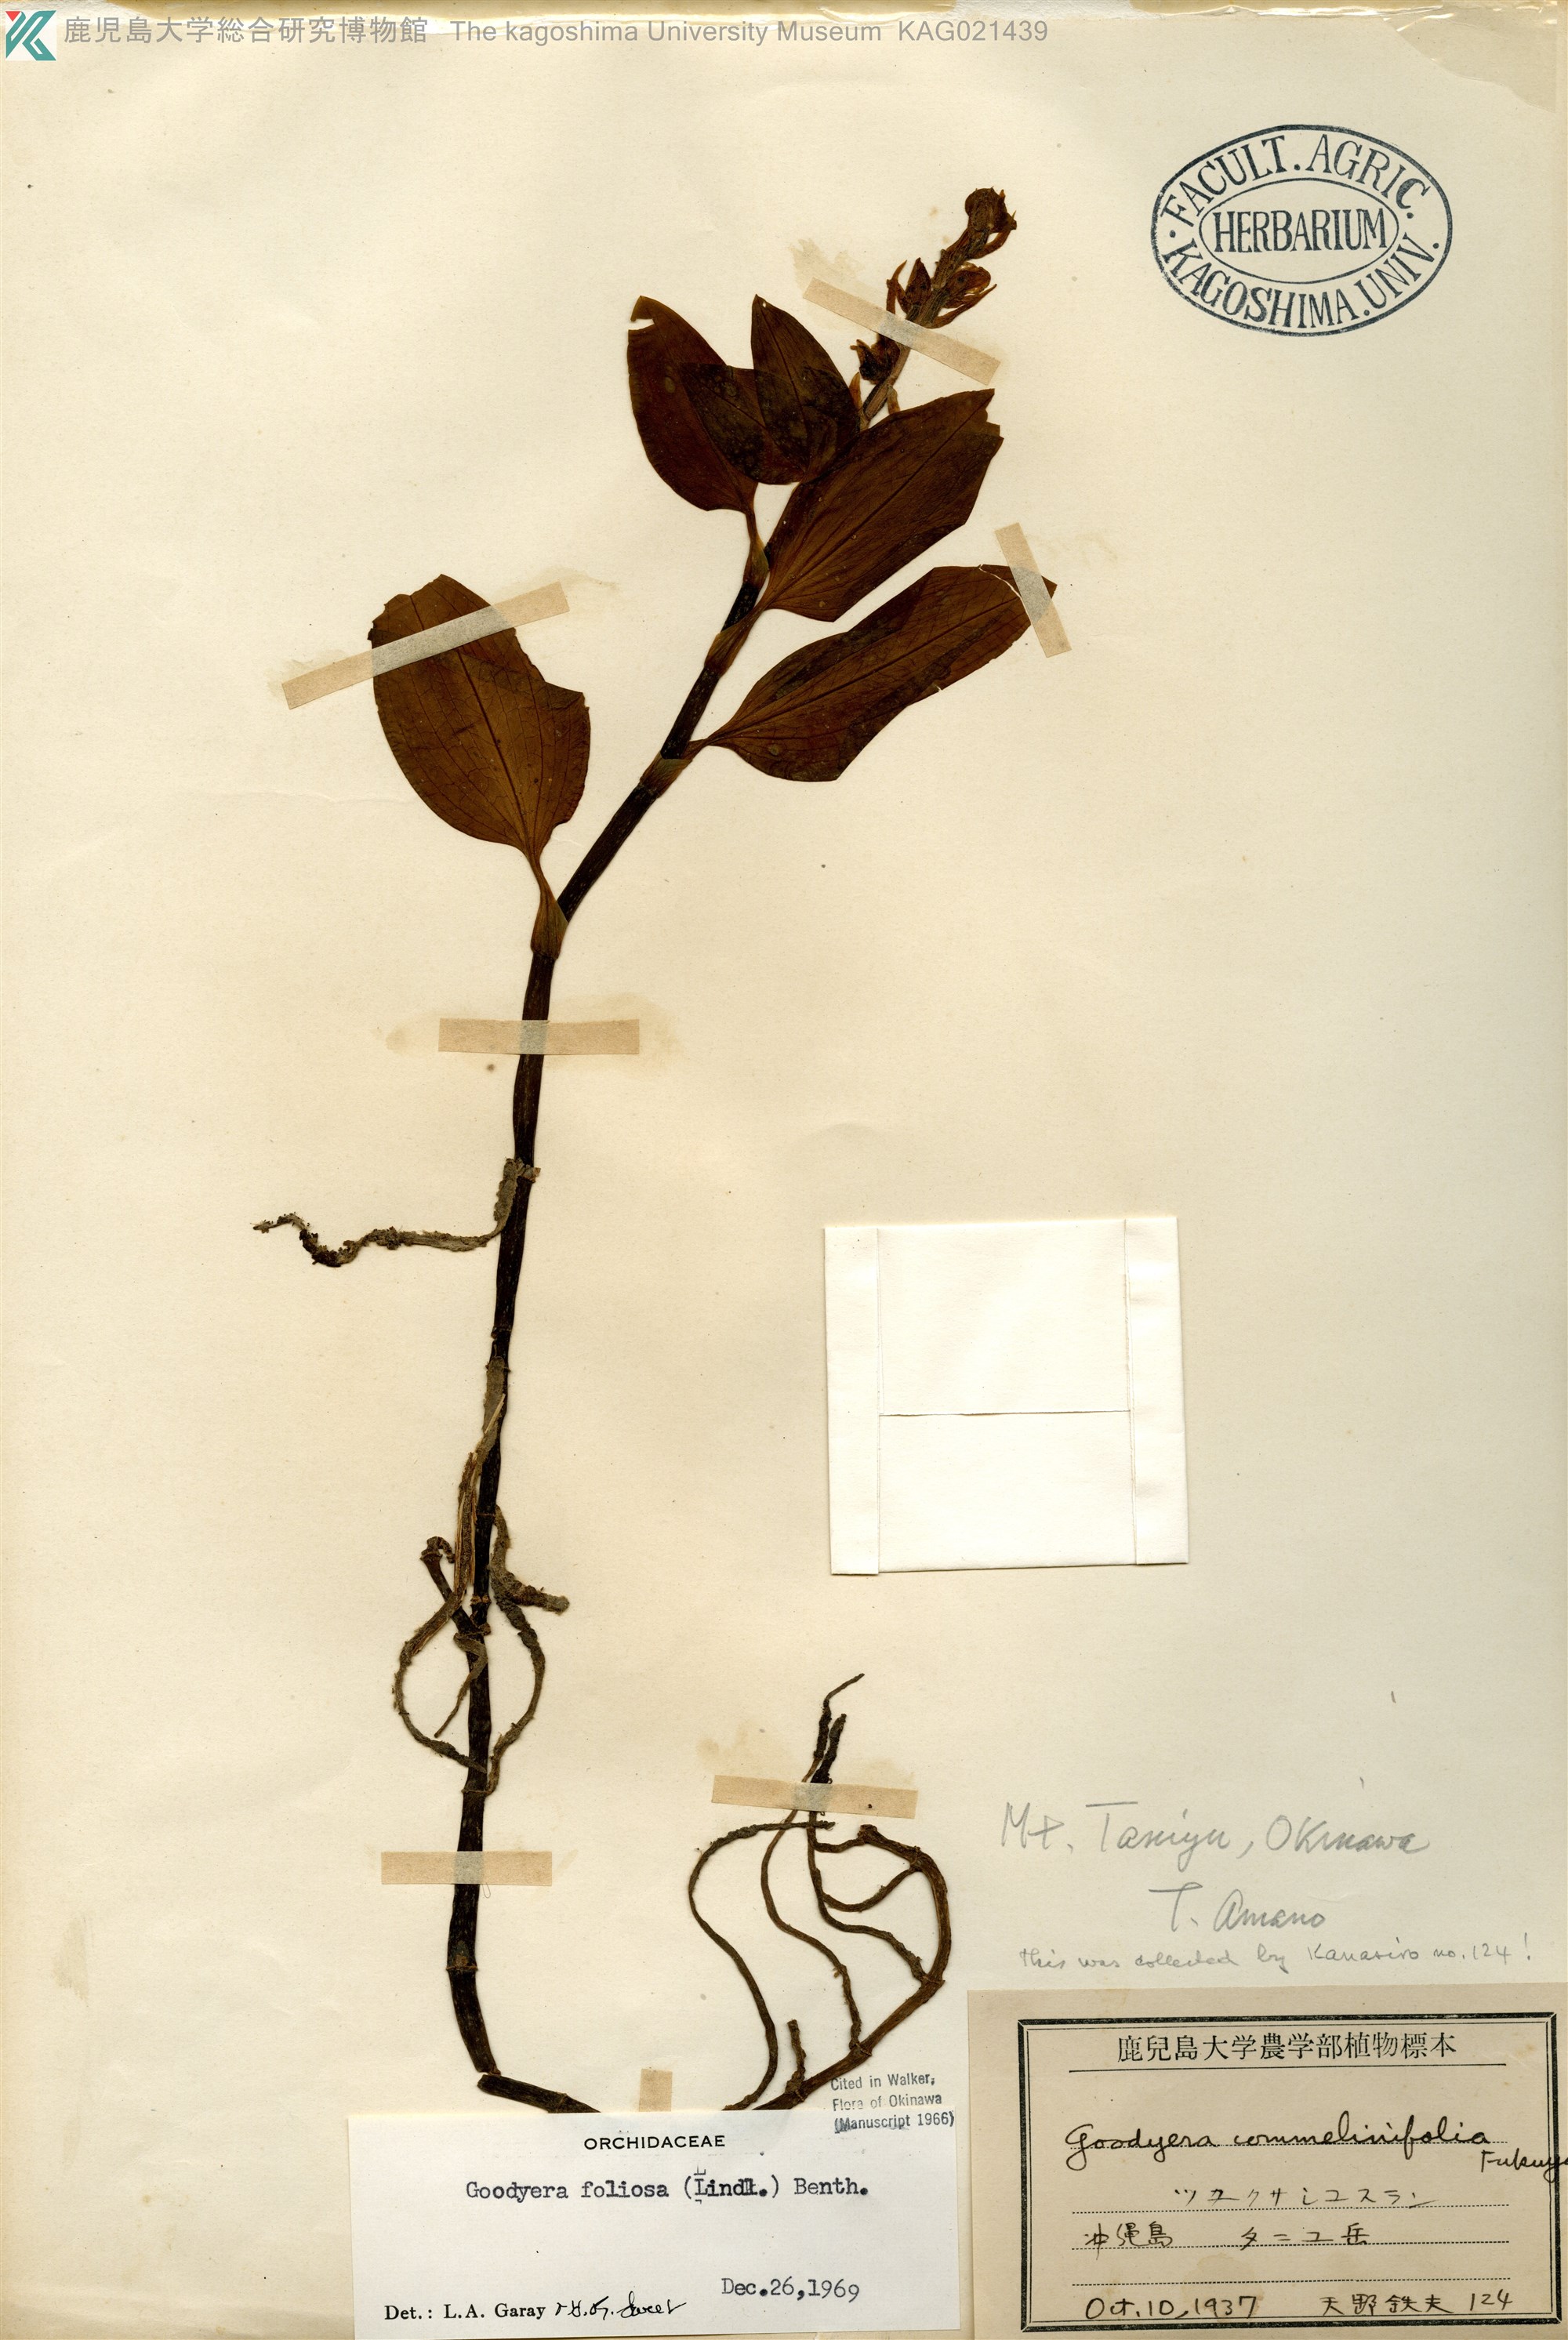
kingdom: Plantae
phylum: Tracheophyta
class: Liliopsida
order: Asparagales
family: Orchidaceae
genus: Goodyera
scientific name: Goodyera foliosa
